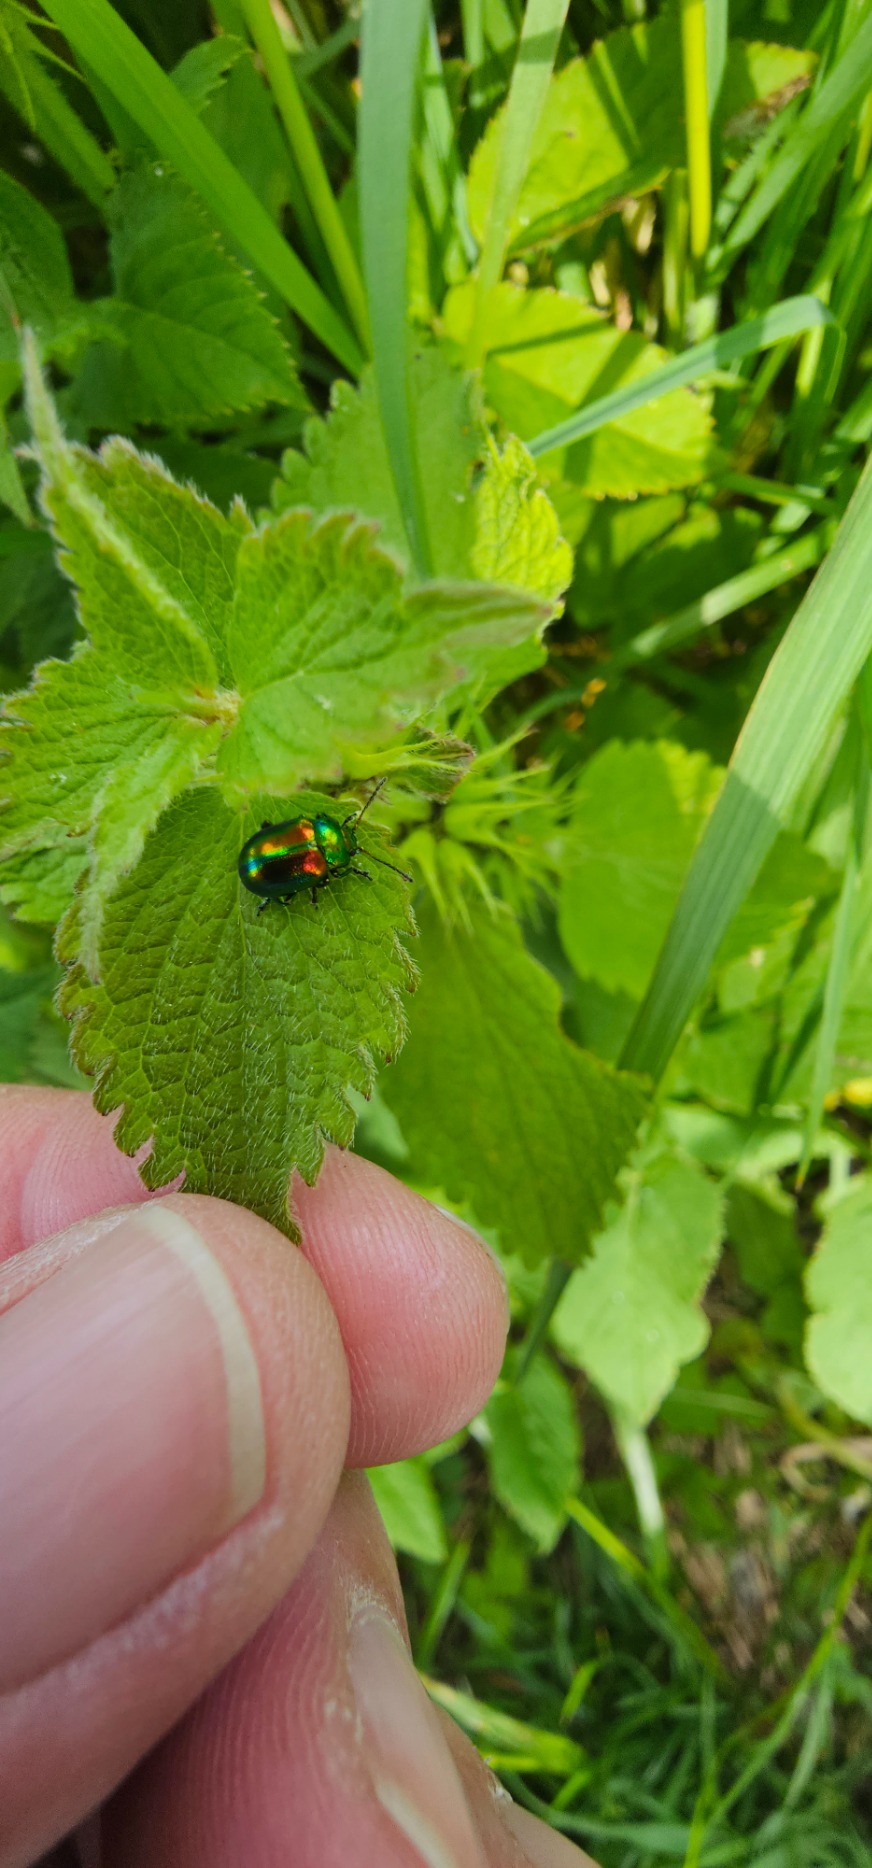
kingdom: Animalia
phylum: Arthropoda
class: Insecta
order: Coleoptera
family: Chrysomelidae
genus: Chrysolina
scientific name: Chrysolina fastuosa
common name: Tvetandbladbille
